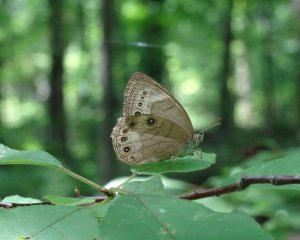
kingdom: Animalia
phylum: Arthropoda
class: Insecta
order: Lepidoptera
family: Nymphalidae
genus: Lethe
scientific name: Lethe eurydice
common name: Appalachian Eyed Brown
